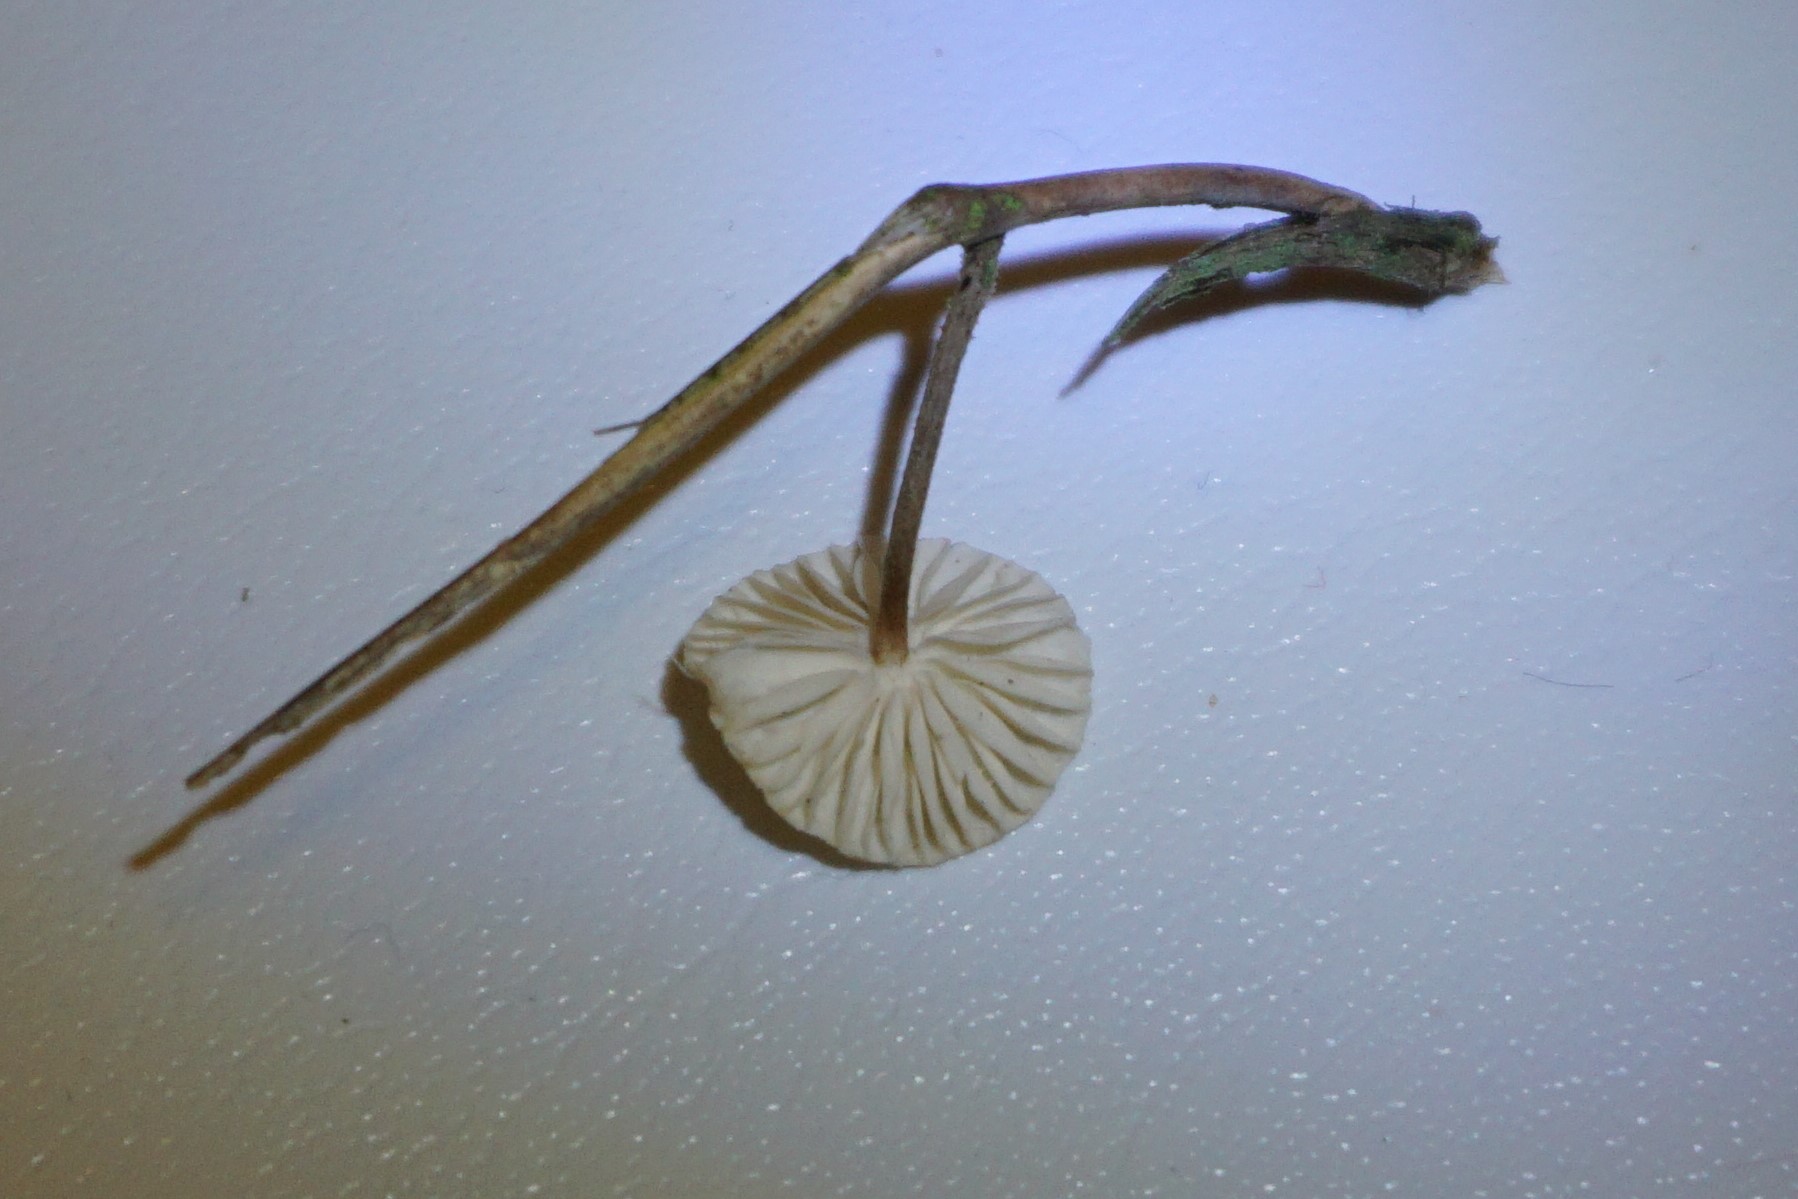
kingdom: Fungi
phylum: Basidiomycota
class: Agaricomycetes
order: Agaricales
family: Marasmiaceae
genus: Crinipellis
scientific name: Crinipellis scabella
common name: børstefod
